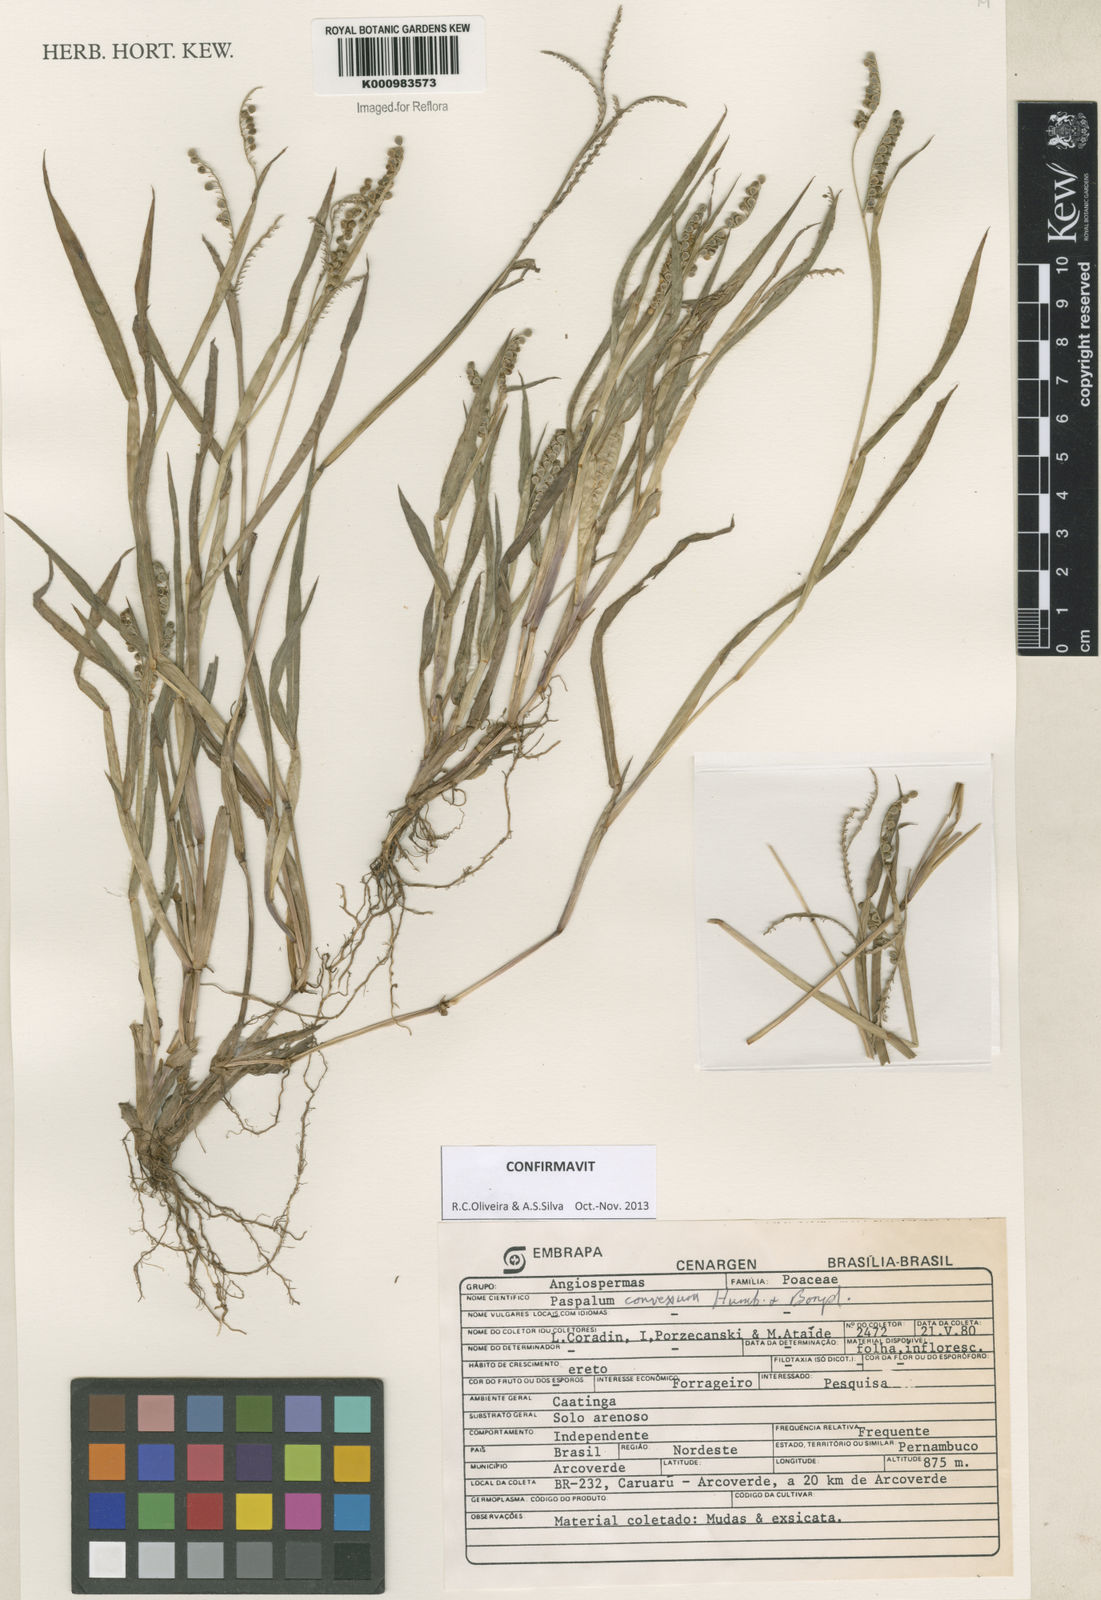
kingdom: Plantae
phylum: Tracheophyta
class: Liliopsida
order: Poales
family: Poaceae
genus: Paspalum
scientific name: Paspalum
